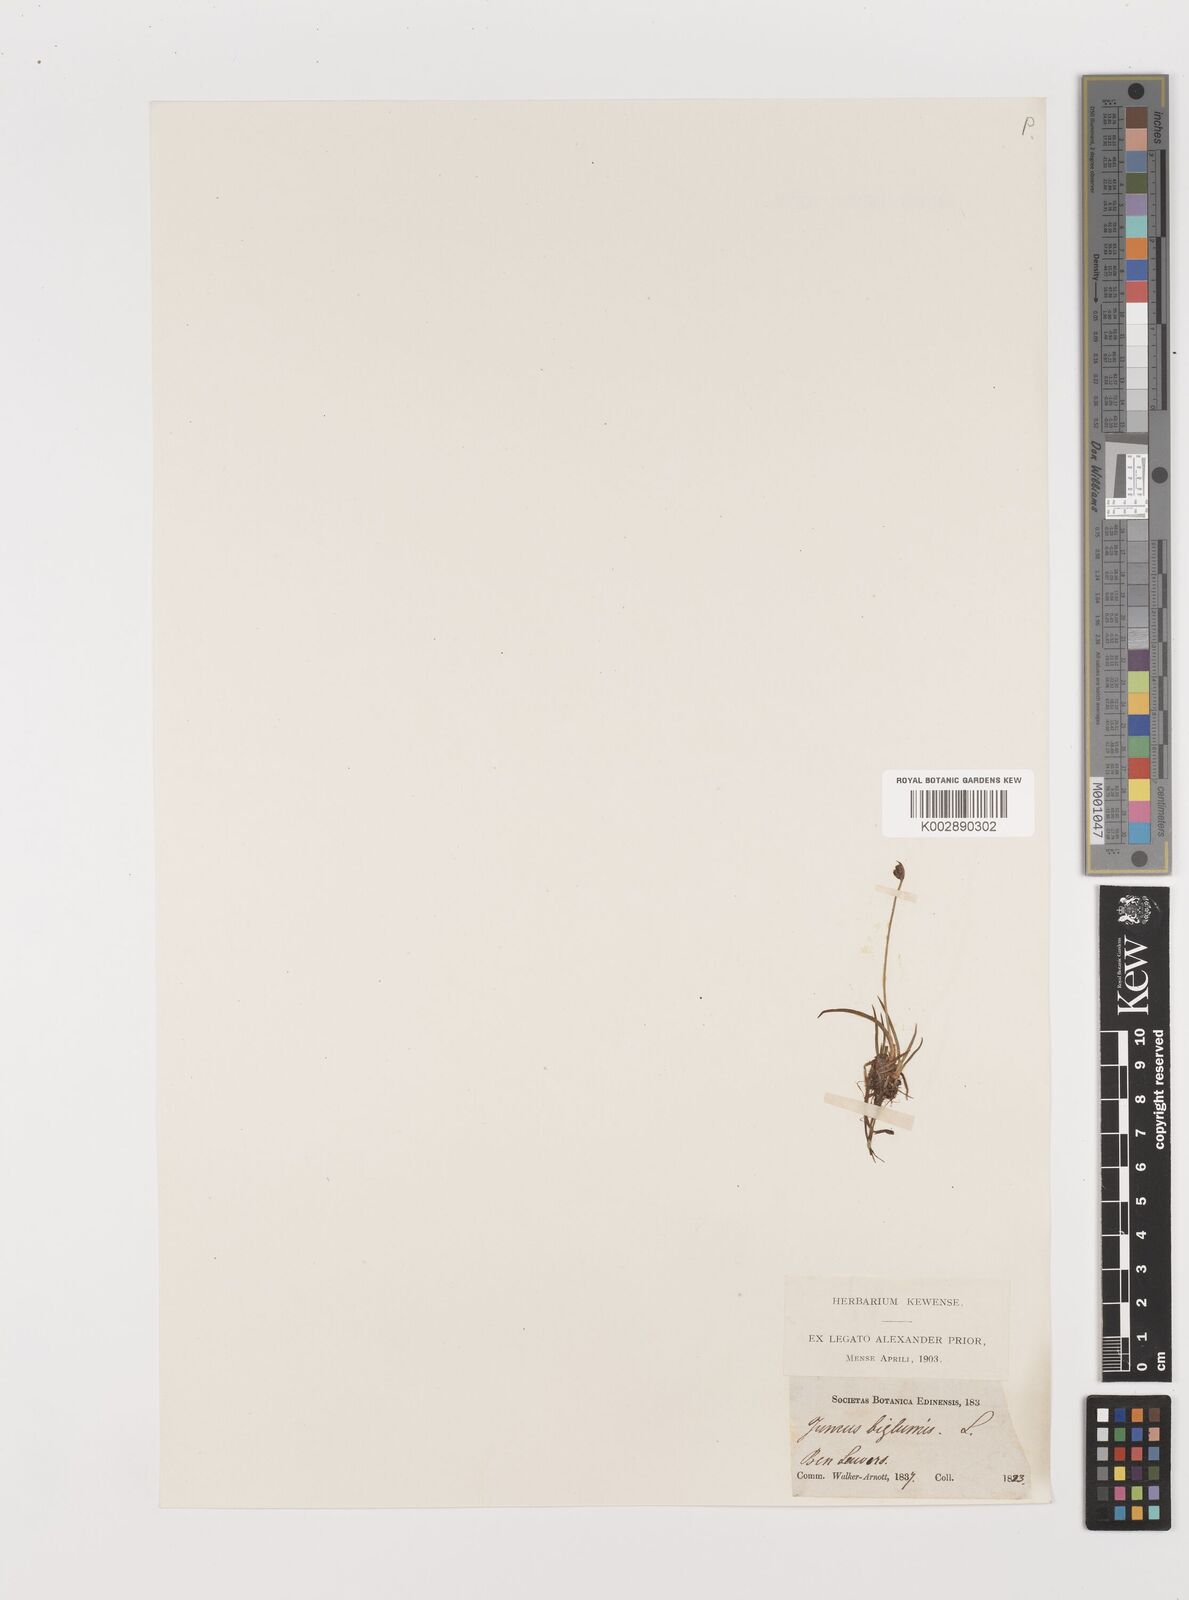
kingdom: Plantae
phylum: Tracheophyta
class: Liliopsida
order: Poales
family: Juncaceae
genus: Juncus
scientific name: Juncus biglumis
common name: Two-flowered rush
